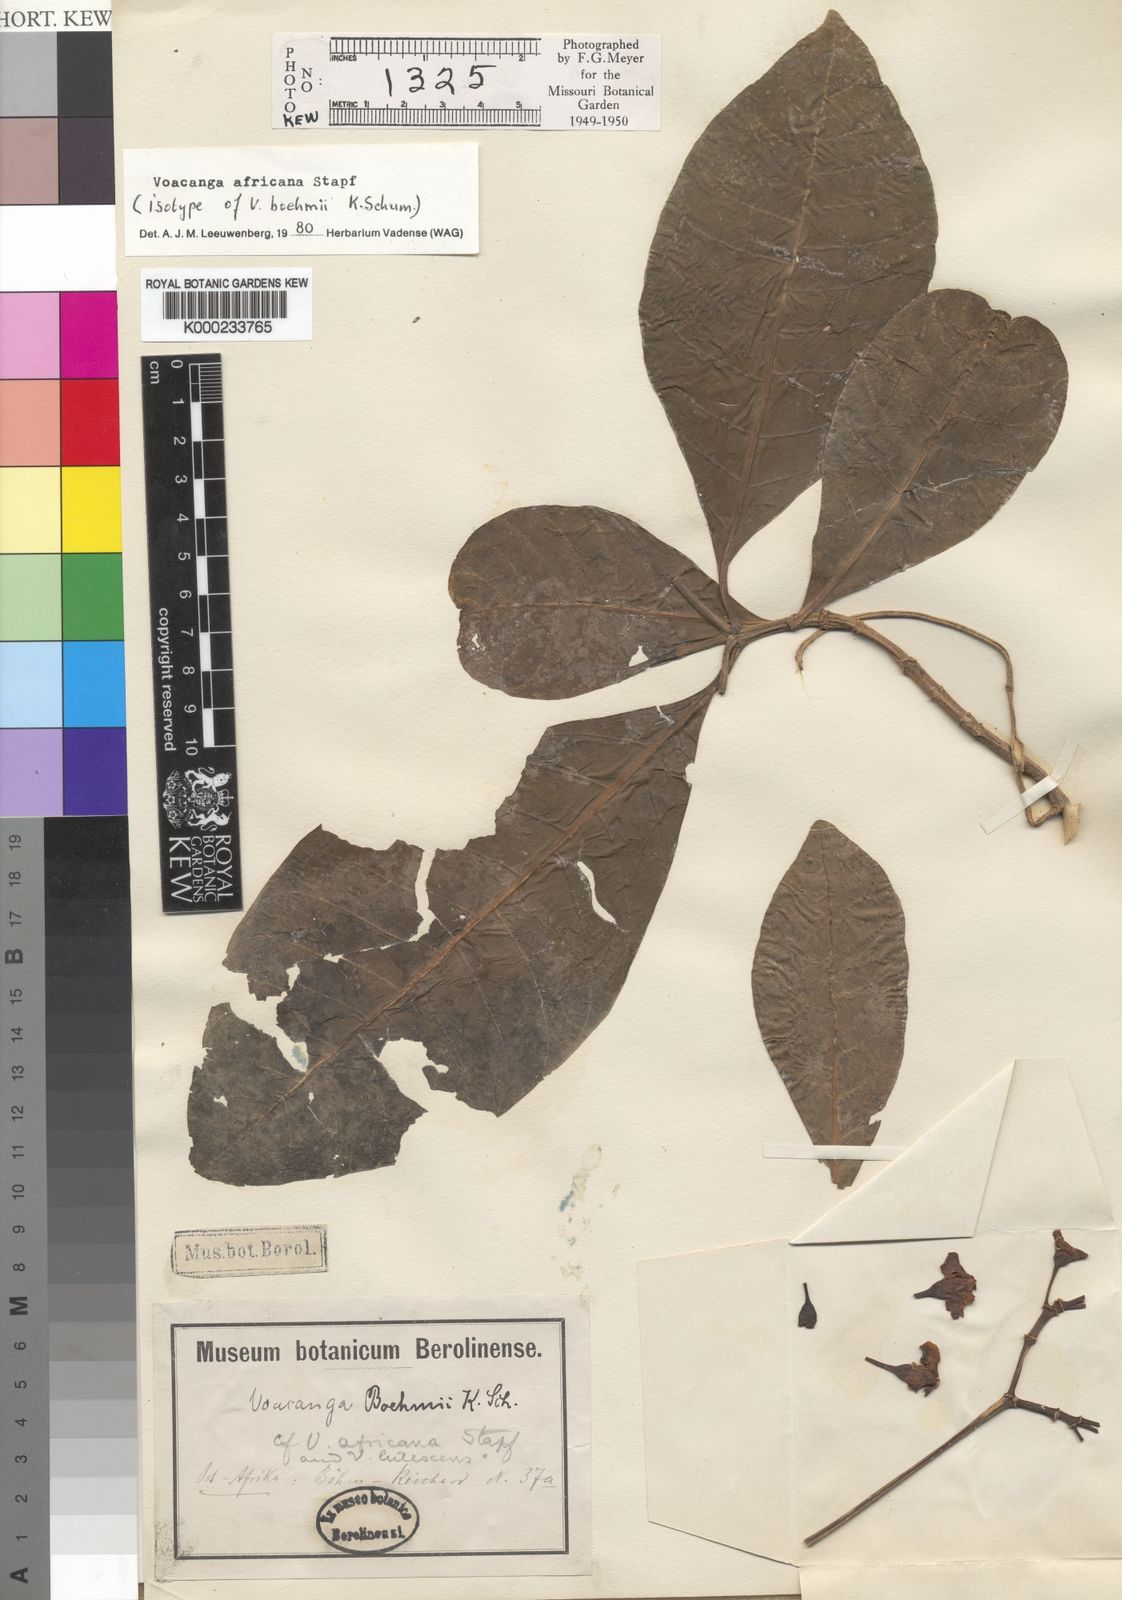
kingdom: Plantae
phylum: Tracheophyta
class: Magnoliopsida
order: Gentianales
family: Apocynaceae
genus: Voacanga
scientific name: Voacanga africana
